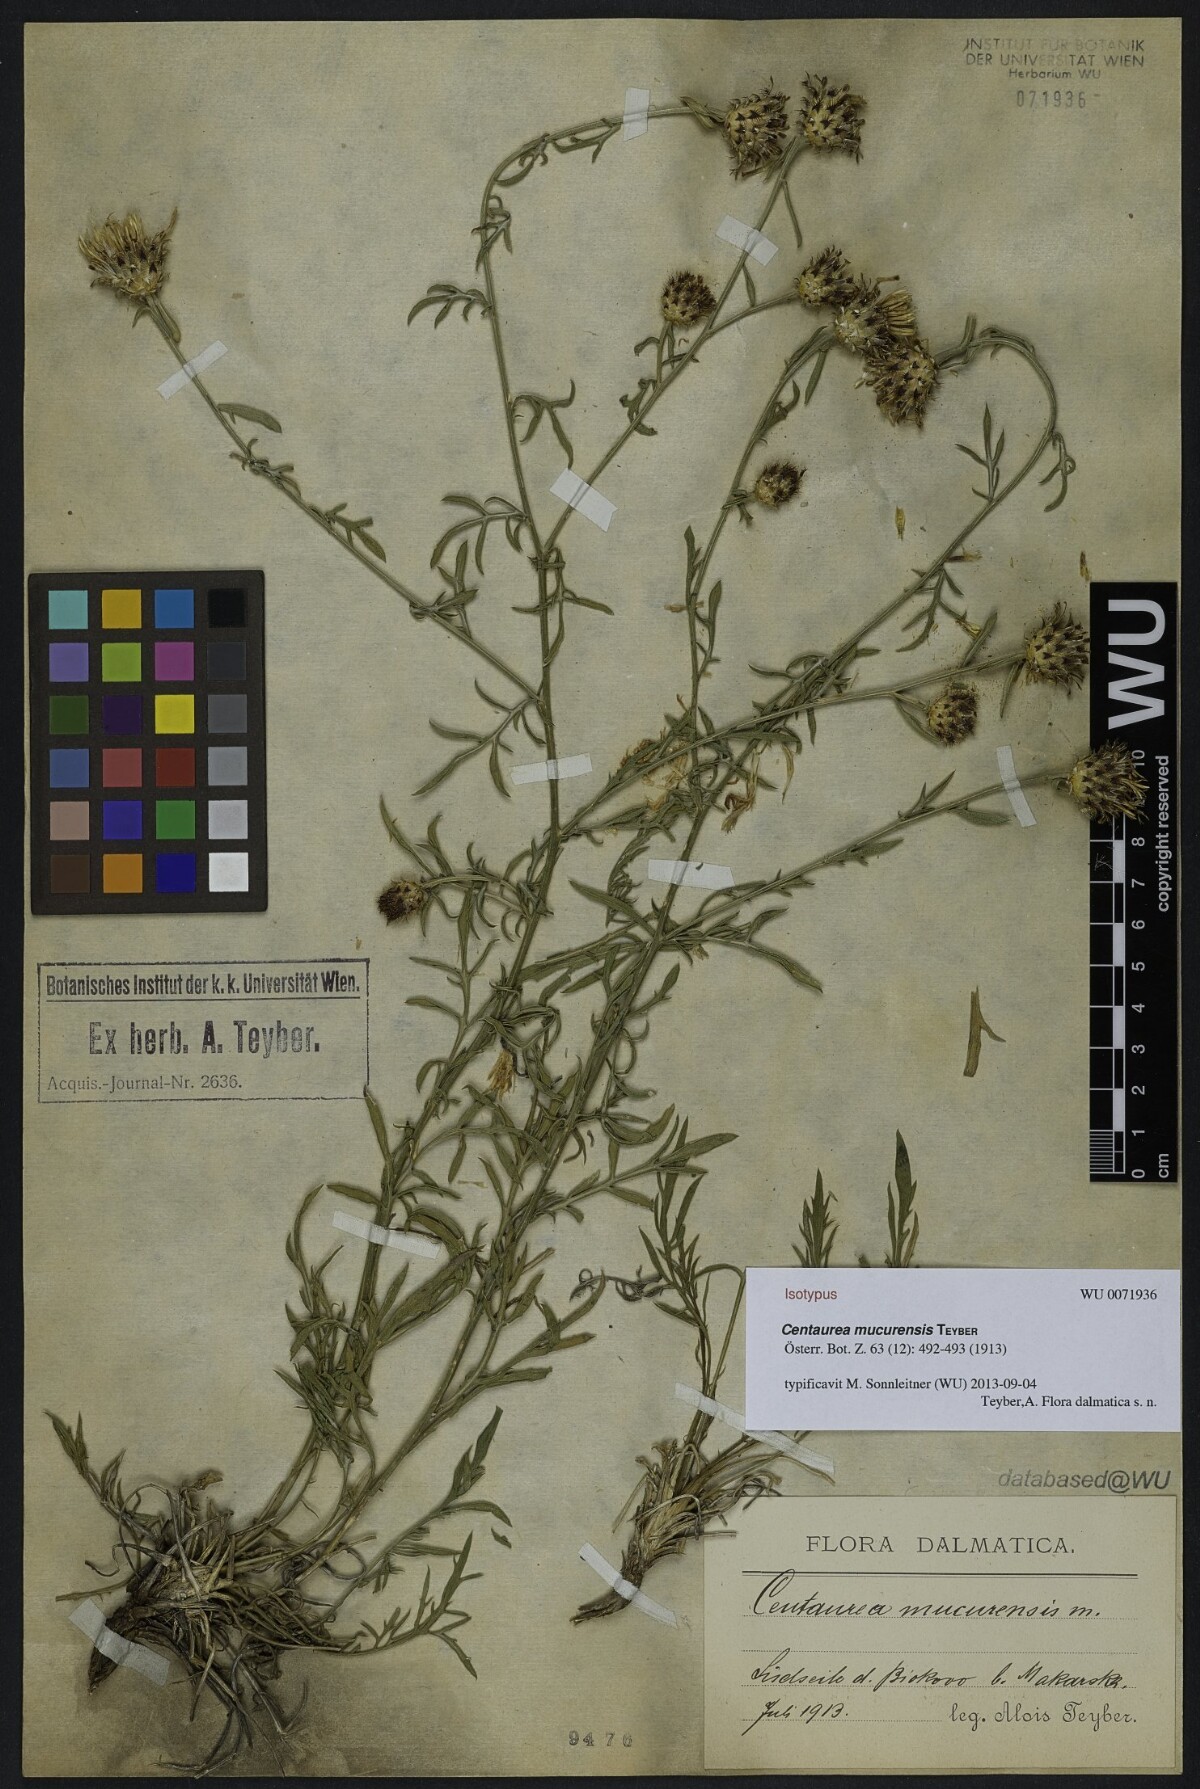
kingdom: Plantae
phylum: Tracheophyta
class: Magnoliopsida
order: Asterales
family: Asteraceae
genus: Centaurea
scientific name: Centaurea mucurensis
